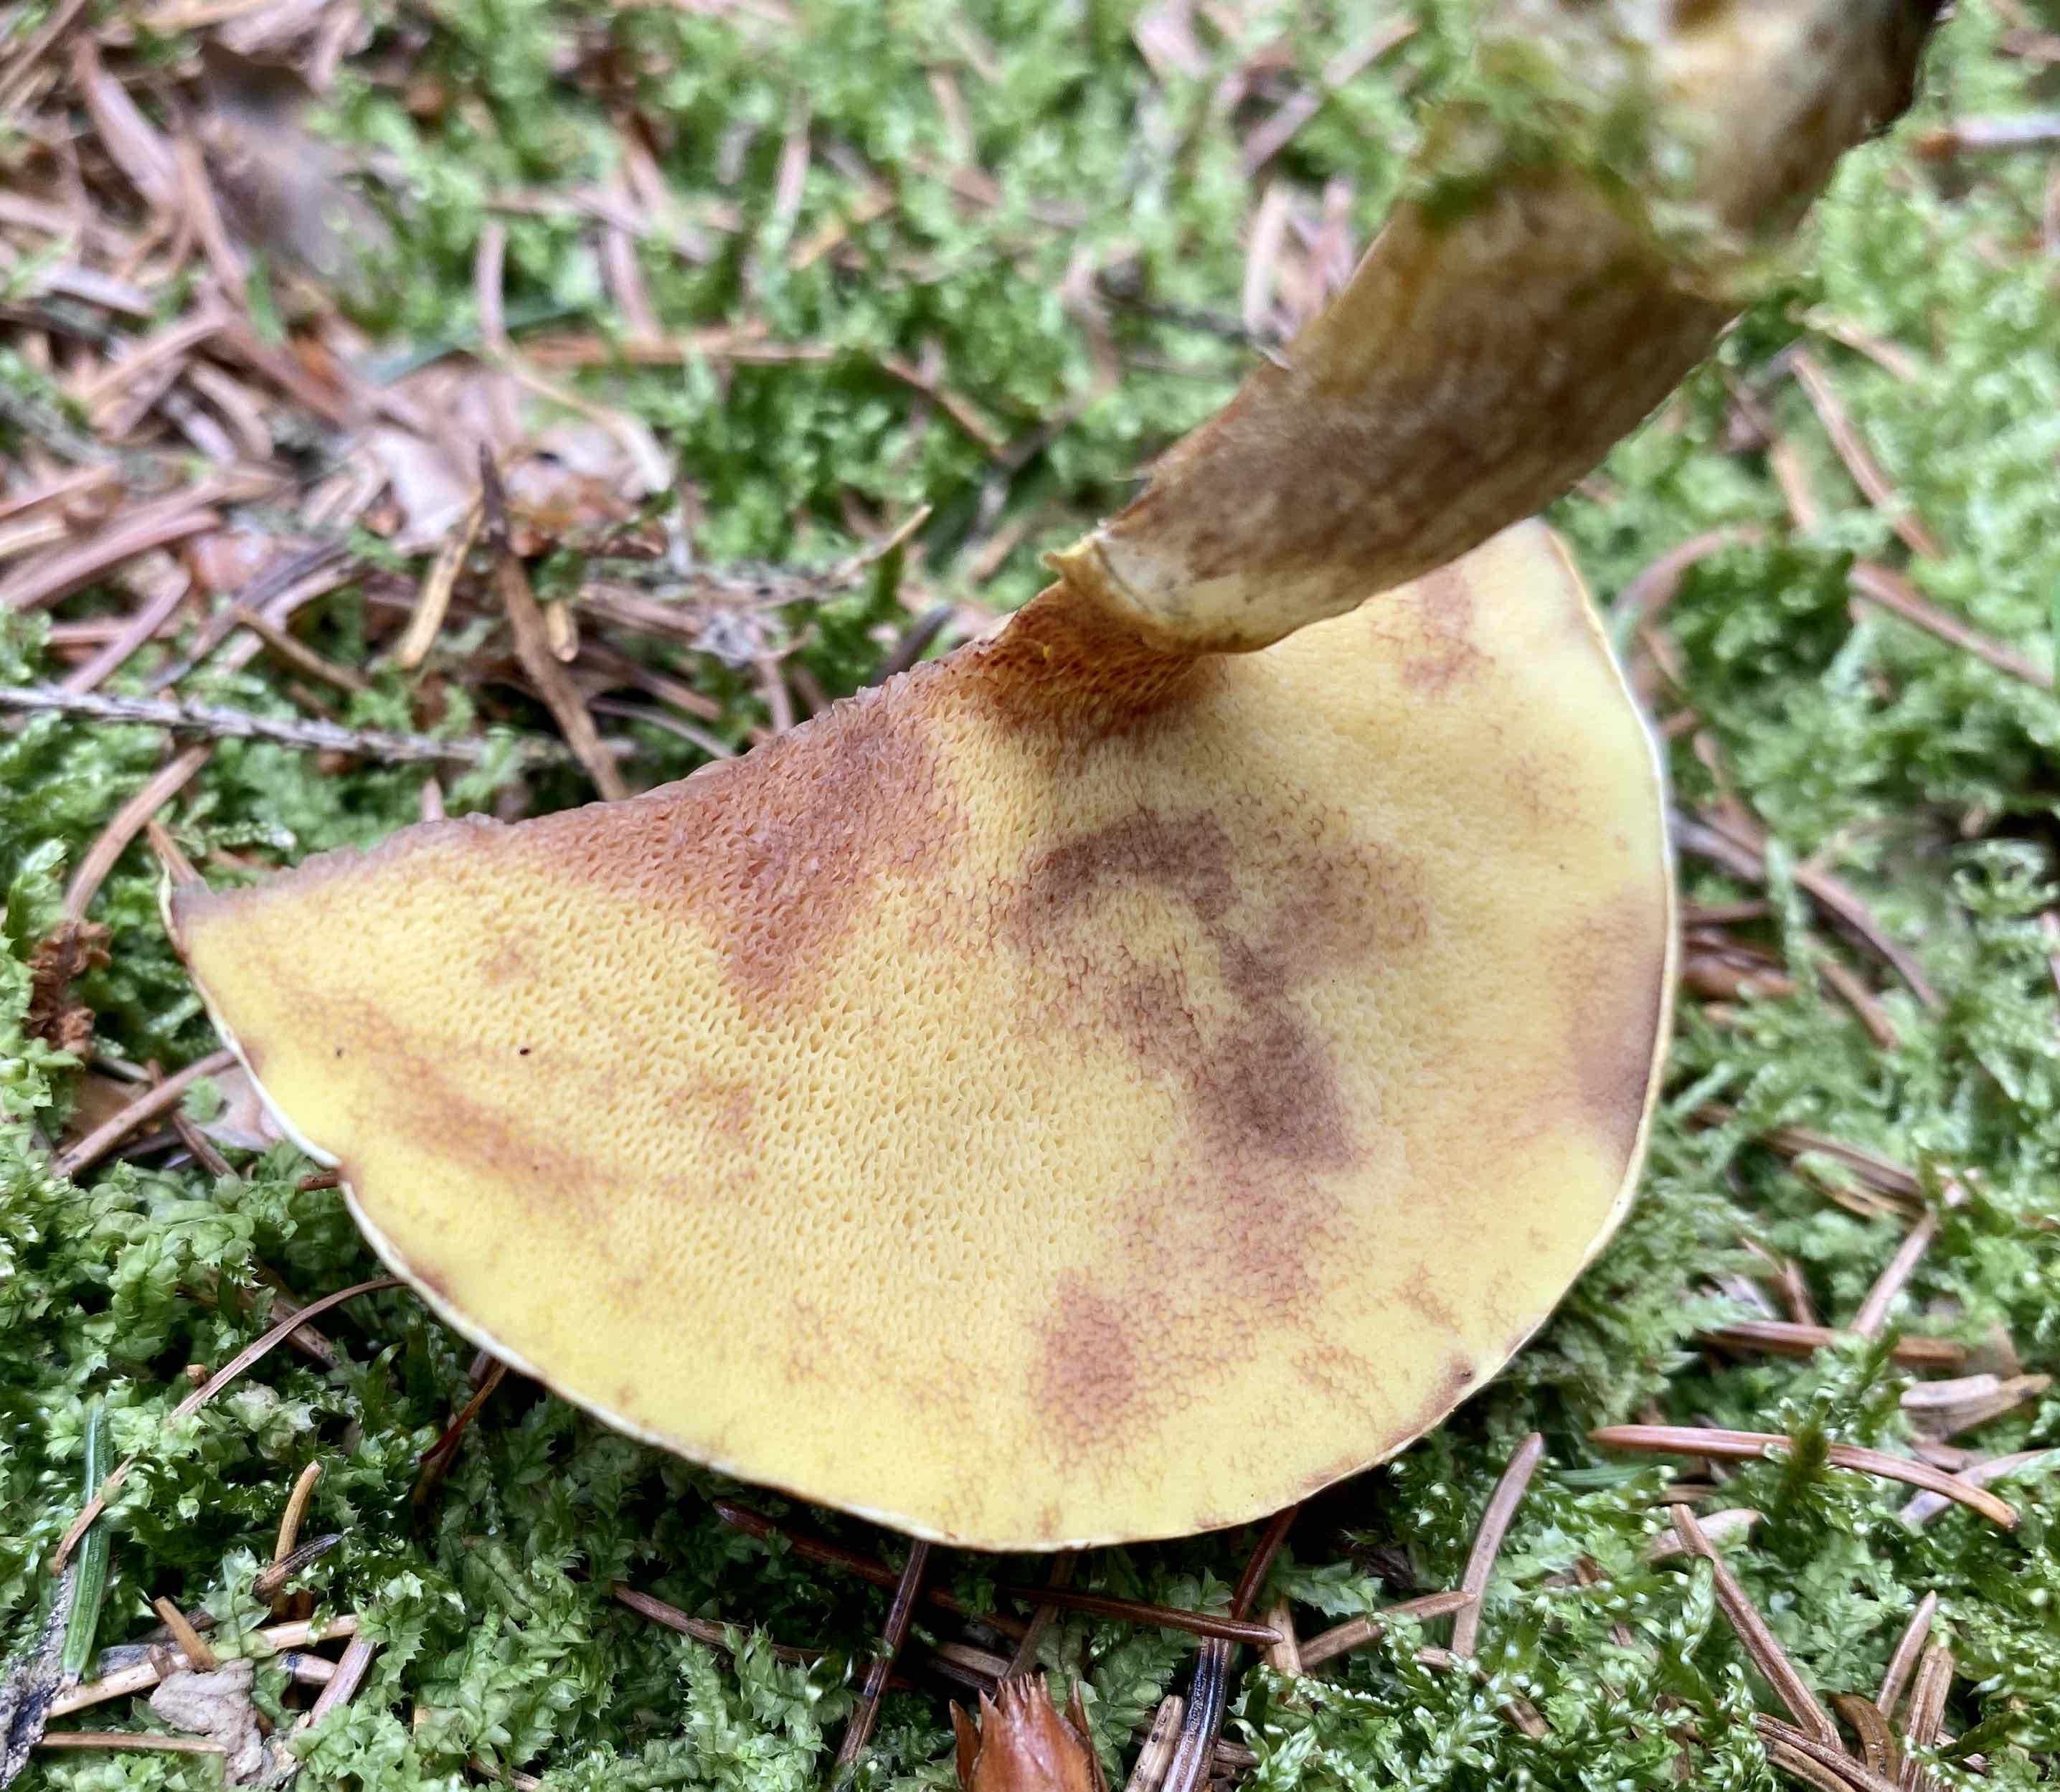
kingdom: Fungi
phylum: Basidiomycota
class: Agaricomycetes
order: Boletales
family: Suillaceae
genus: Suillus
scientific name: Suillus grevillei
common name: lærke-slimrørhat
